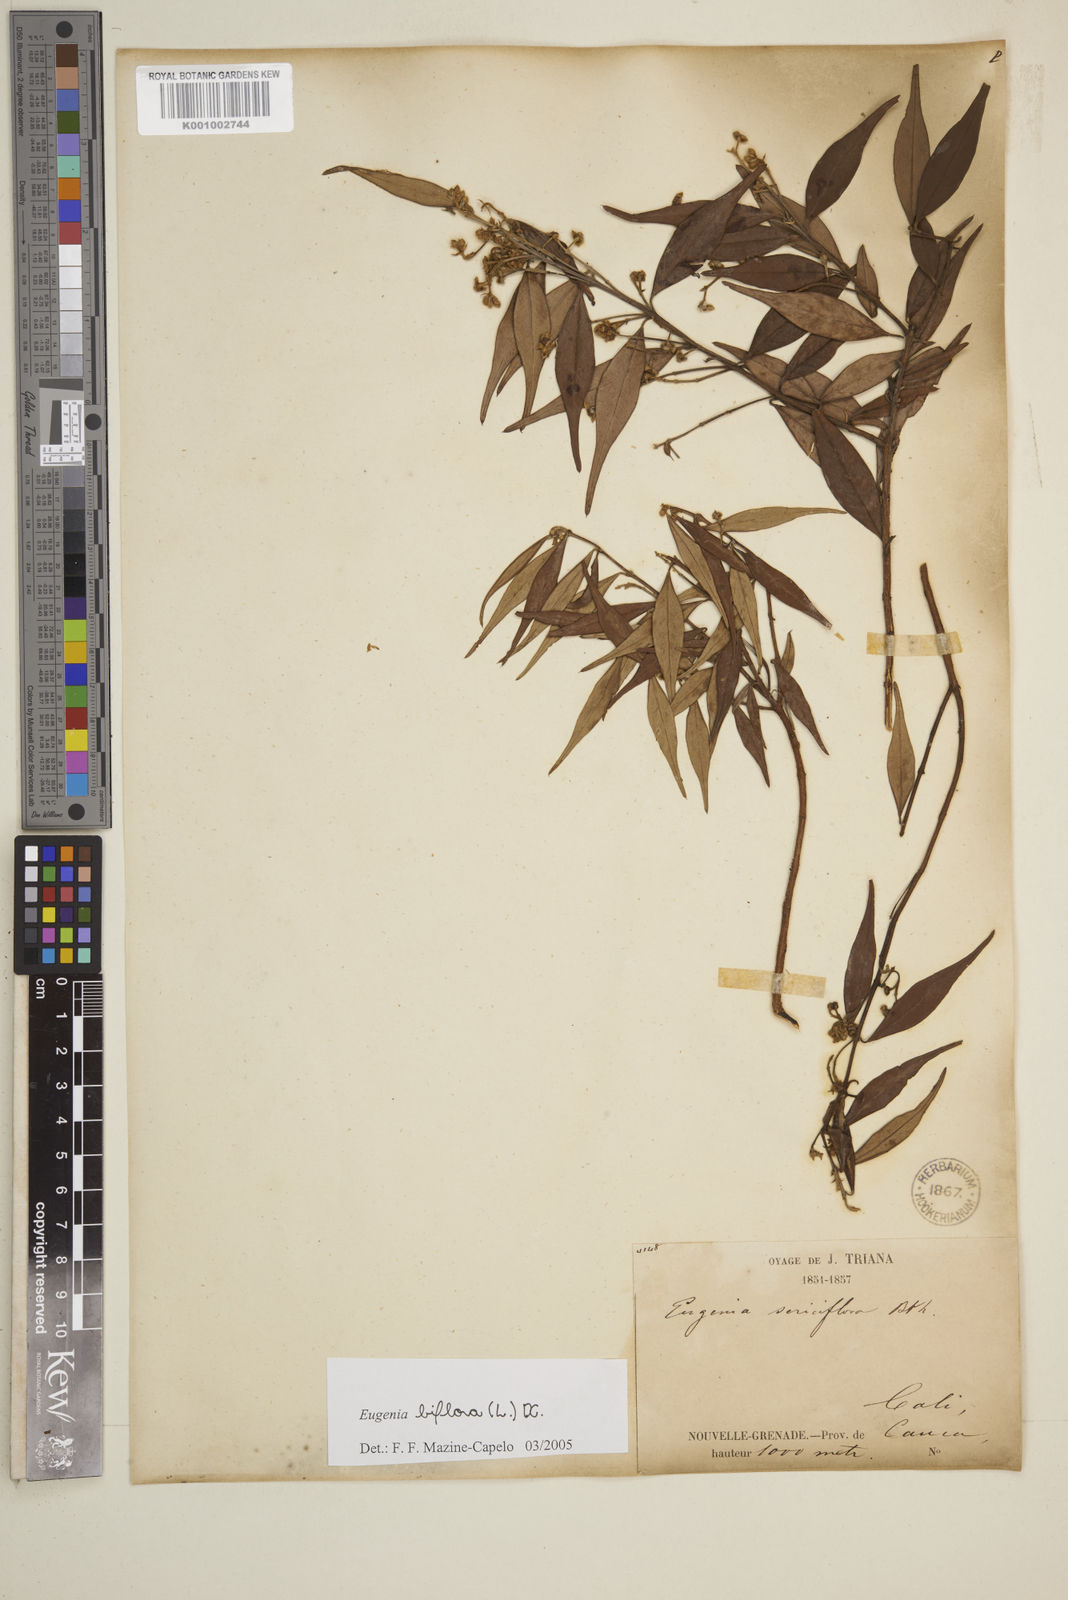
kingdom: Plantae
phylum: Tracheophyta
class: Magnoliopsida
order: Myrtales
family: Myrtaceae
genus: Eugenia
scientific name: Eugenia biflora
